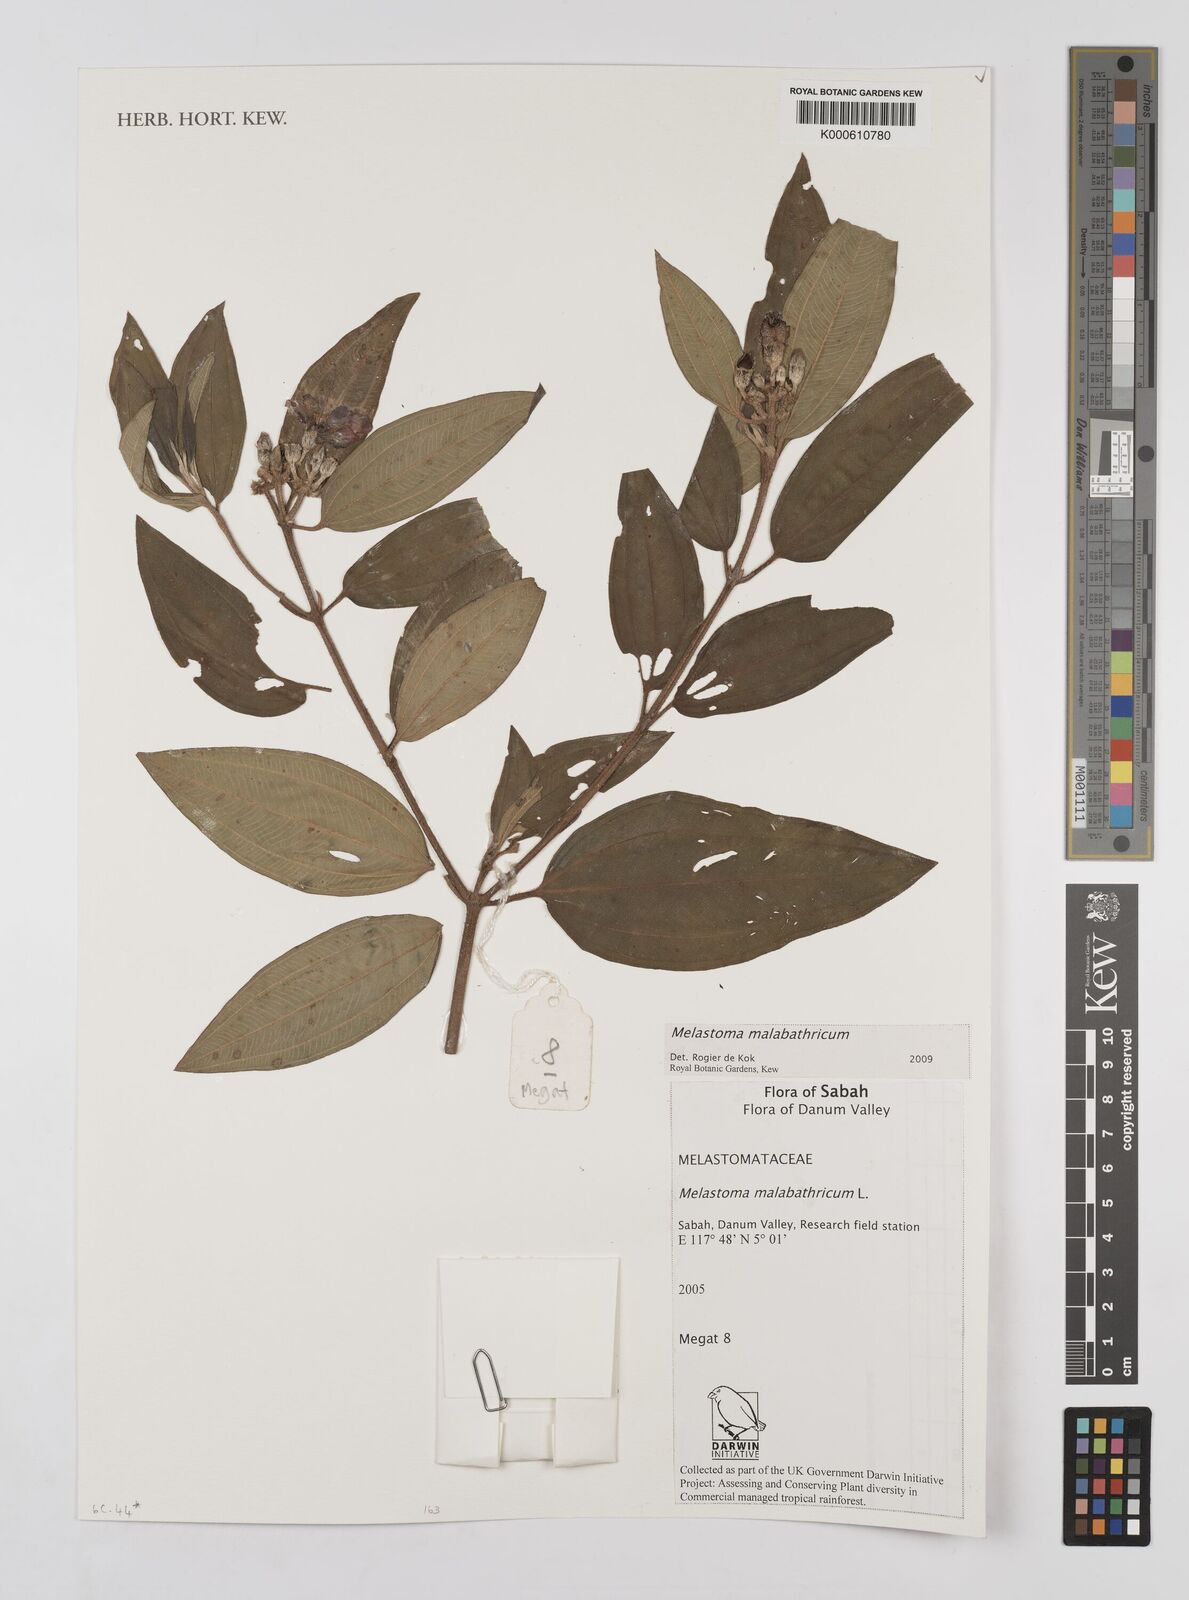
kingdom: Plantae
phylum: Tracheophyta
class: Magnoliopsida
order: Myrtales
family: Melastomataceae
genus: Melastoma
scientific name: Melastoma malabathricum
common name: Indian-rhododendron
